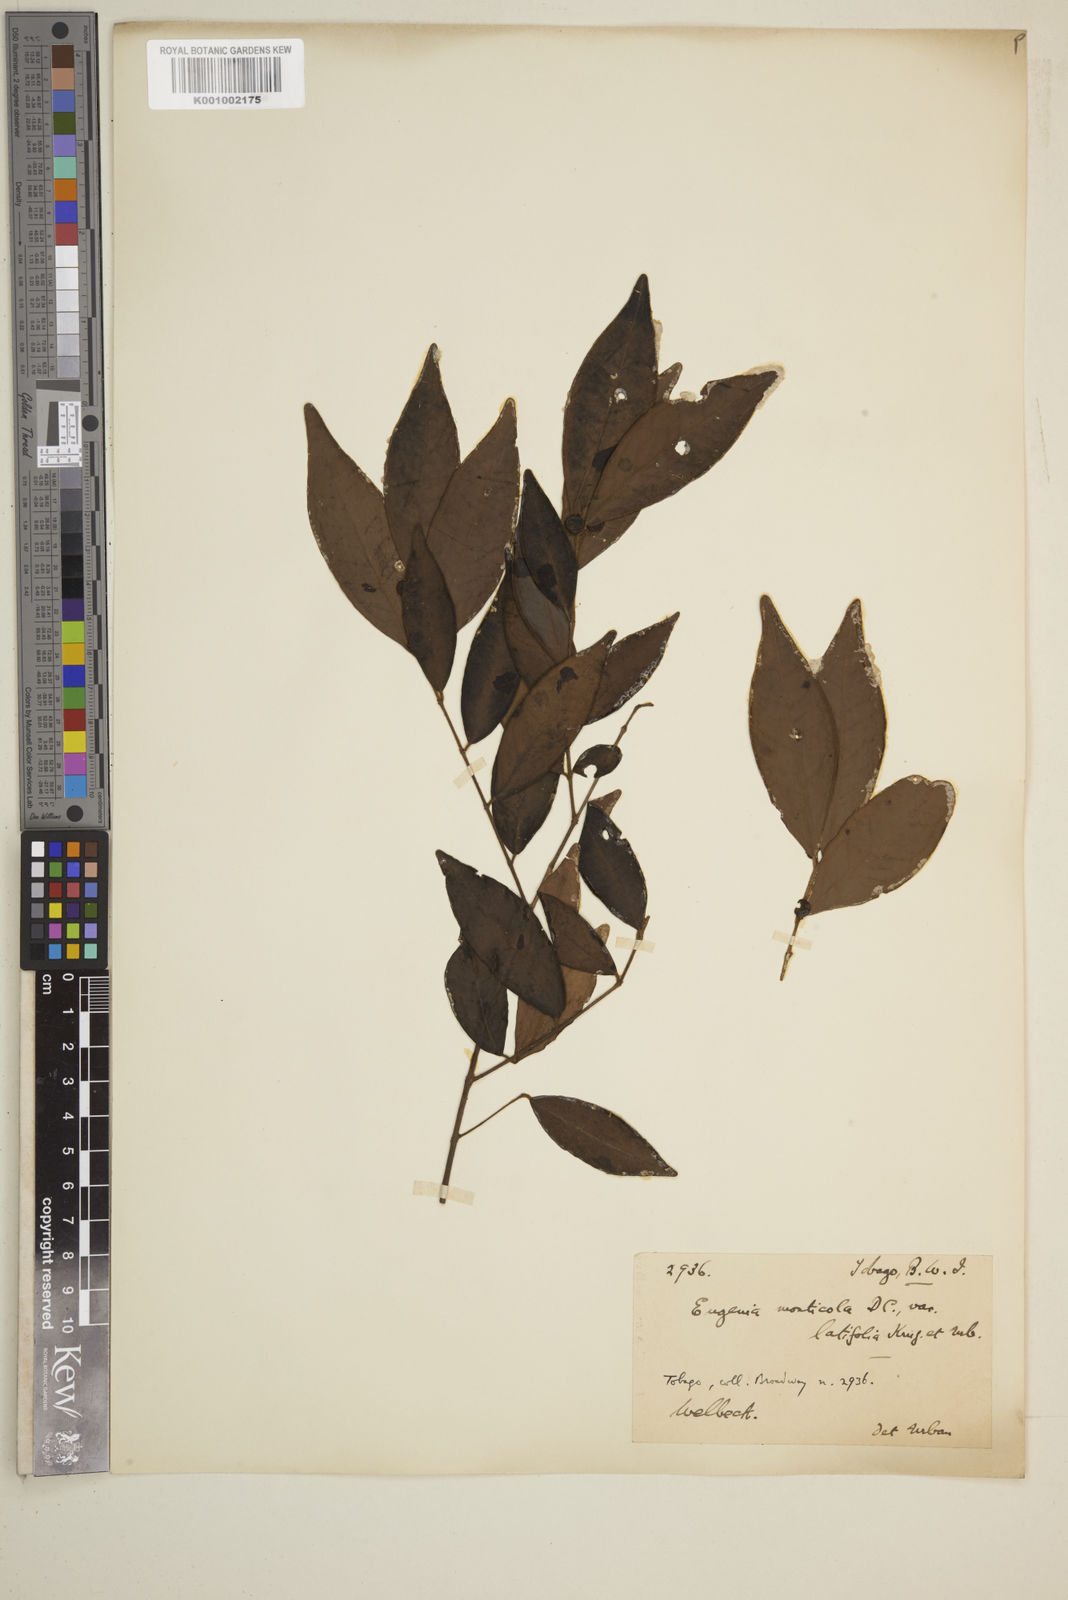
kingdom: Plantae
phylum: Tracheophyta
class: Magnoliopsida
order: Myrtales
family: Myrtaceae
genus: Eugenia
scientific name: Eugenia monticola
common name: Birds berry
